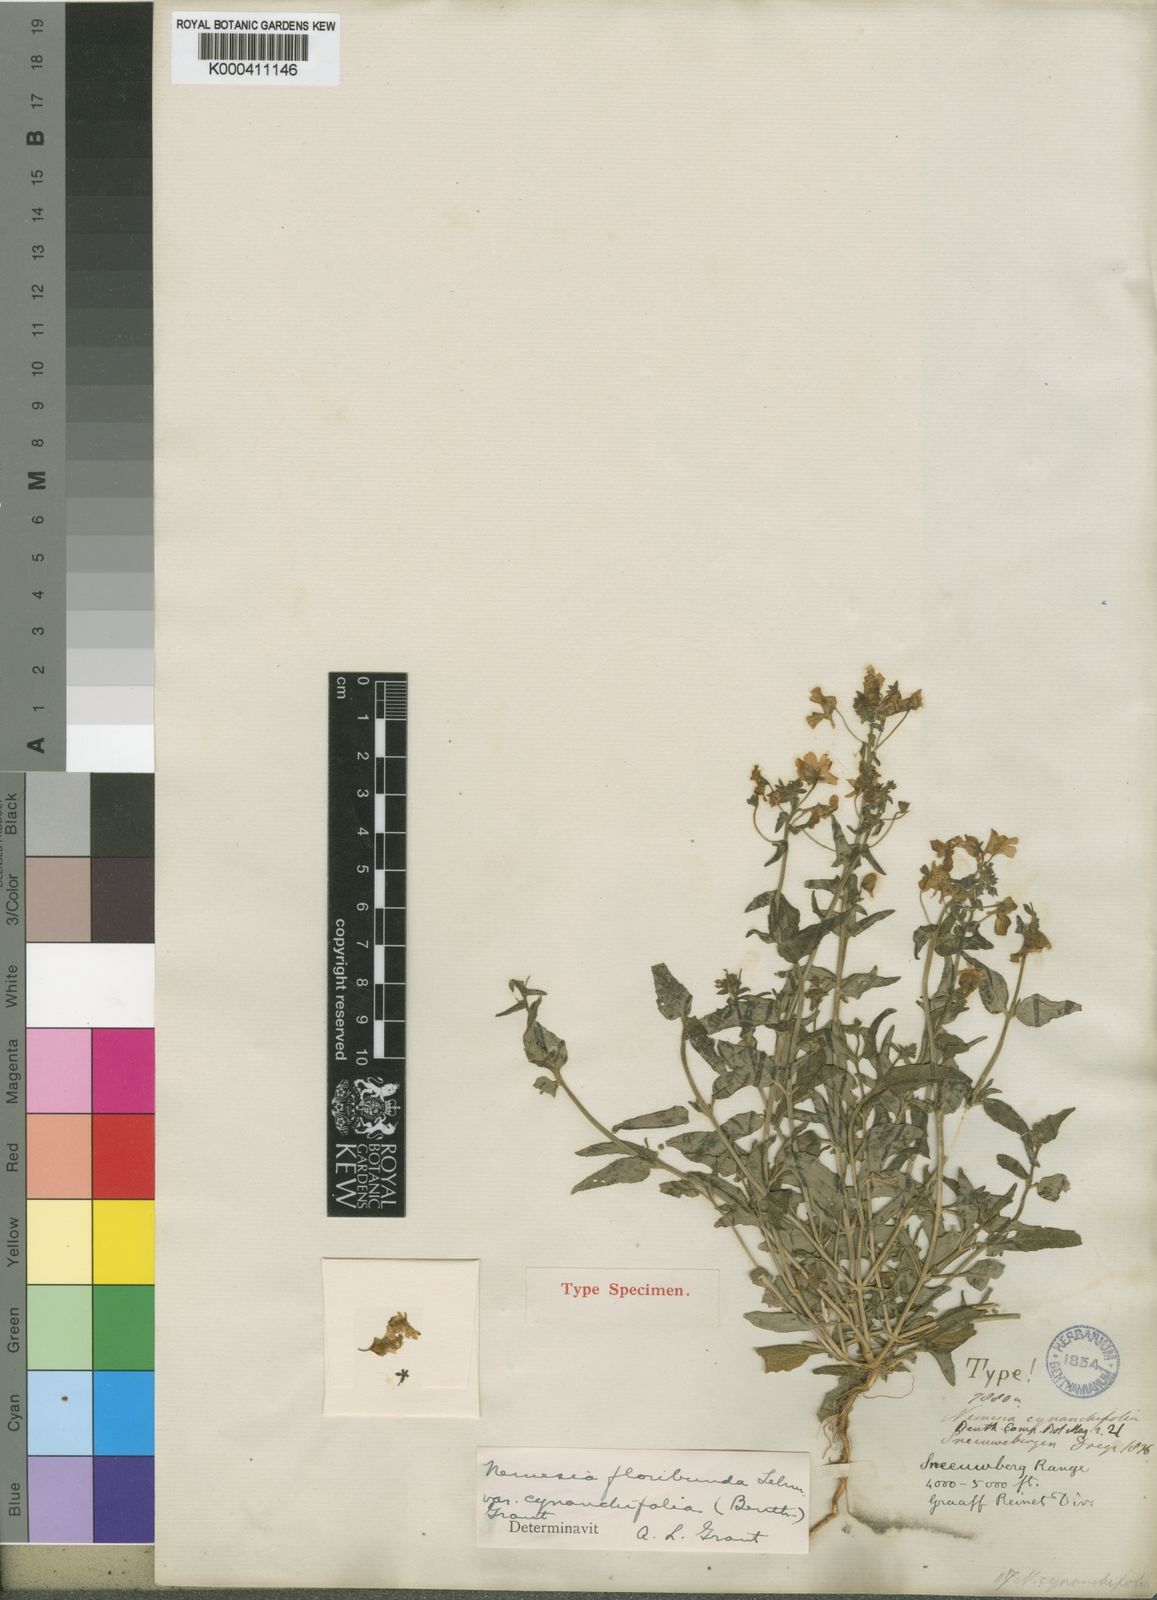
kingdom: Plantae
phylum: Tracheophyta
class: Magnoliopsida
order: Lamiales
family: Scrophulariaceae
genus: Nemesia
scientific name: Nemesia cynanchifolia
